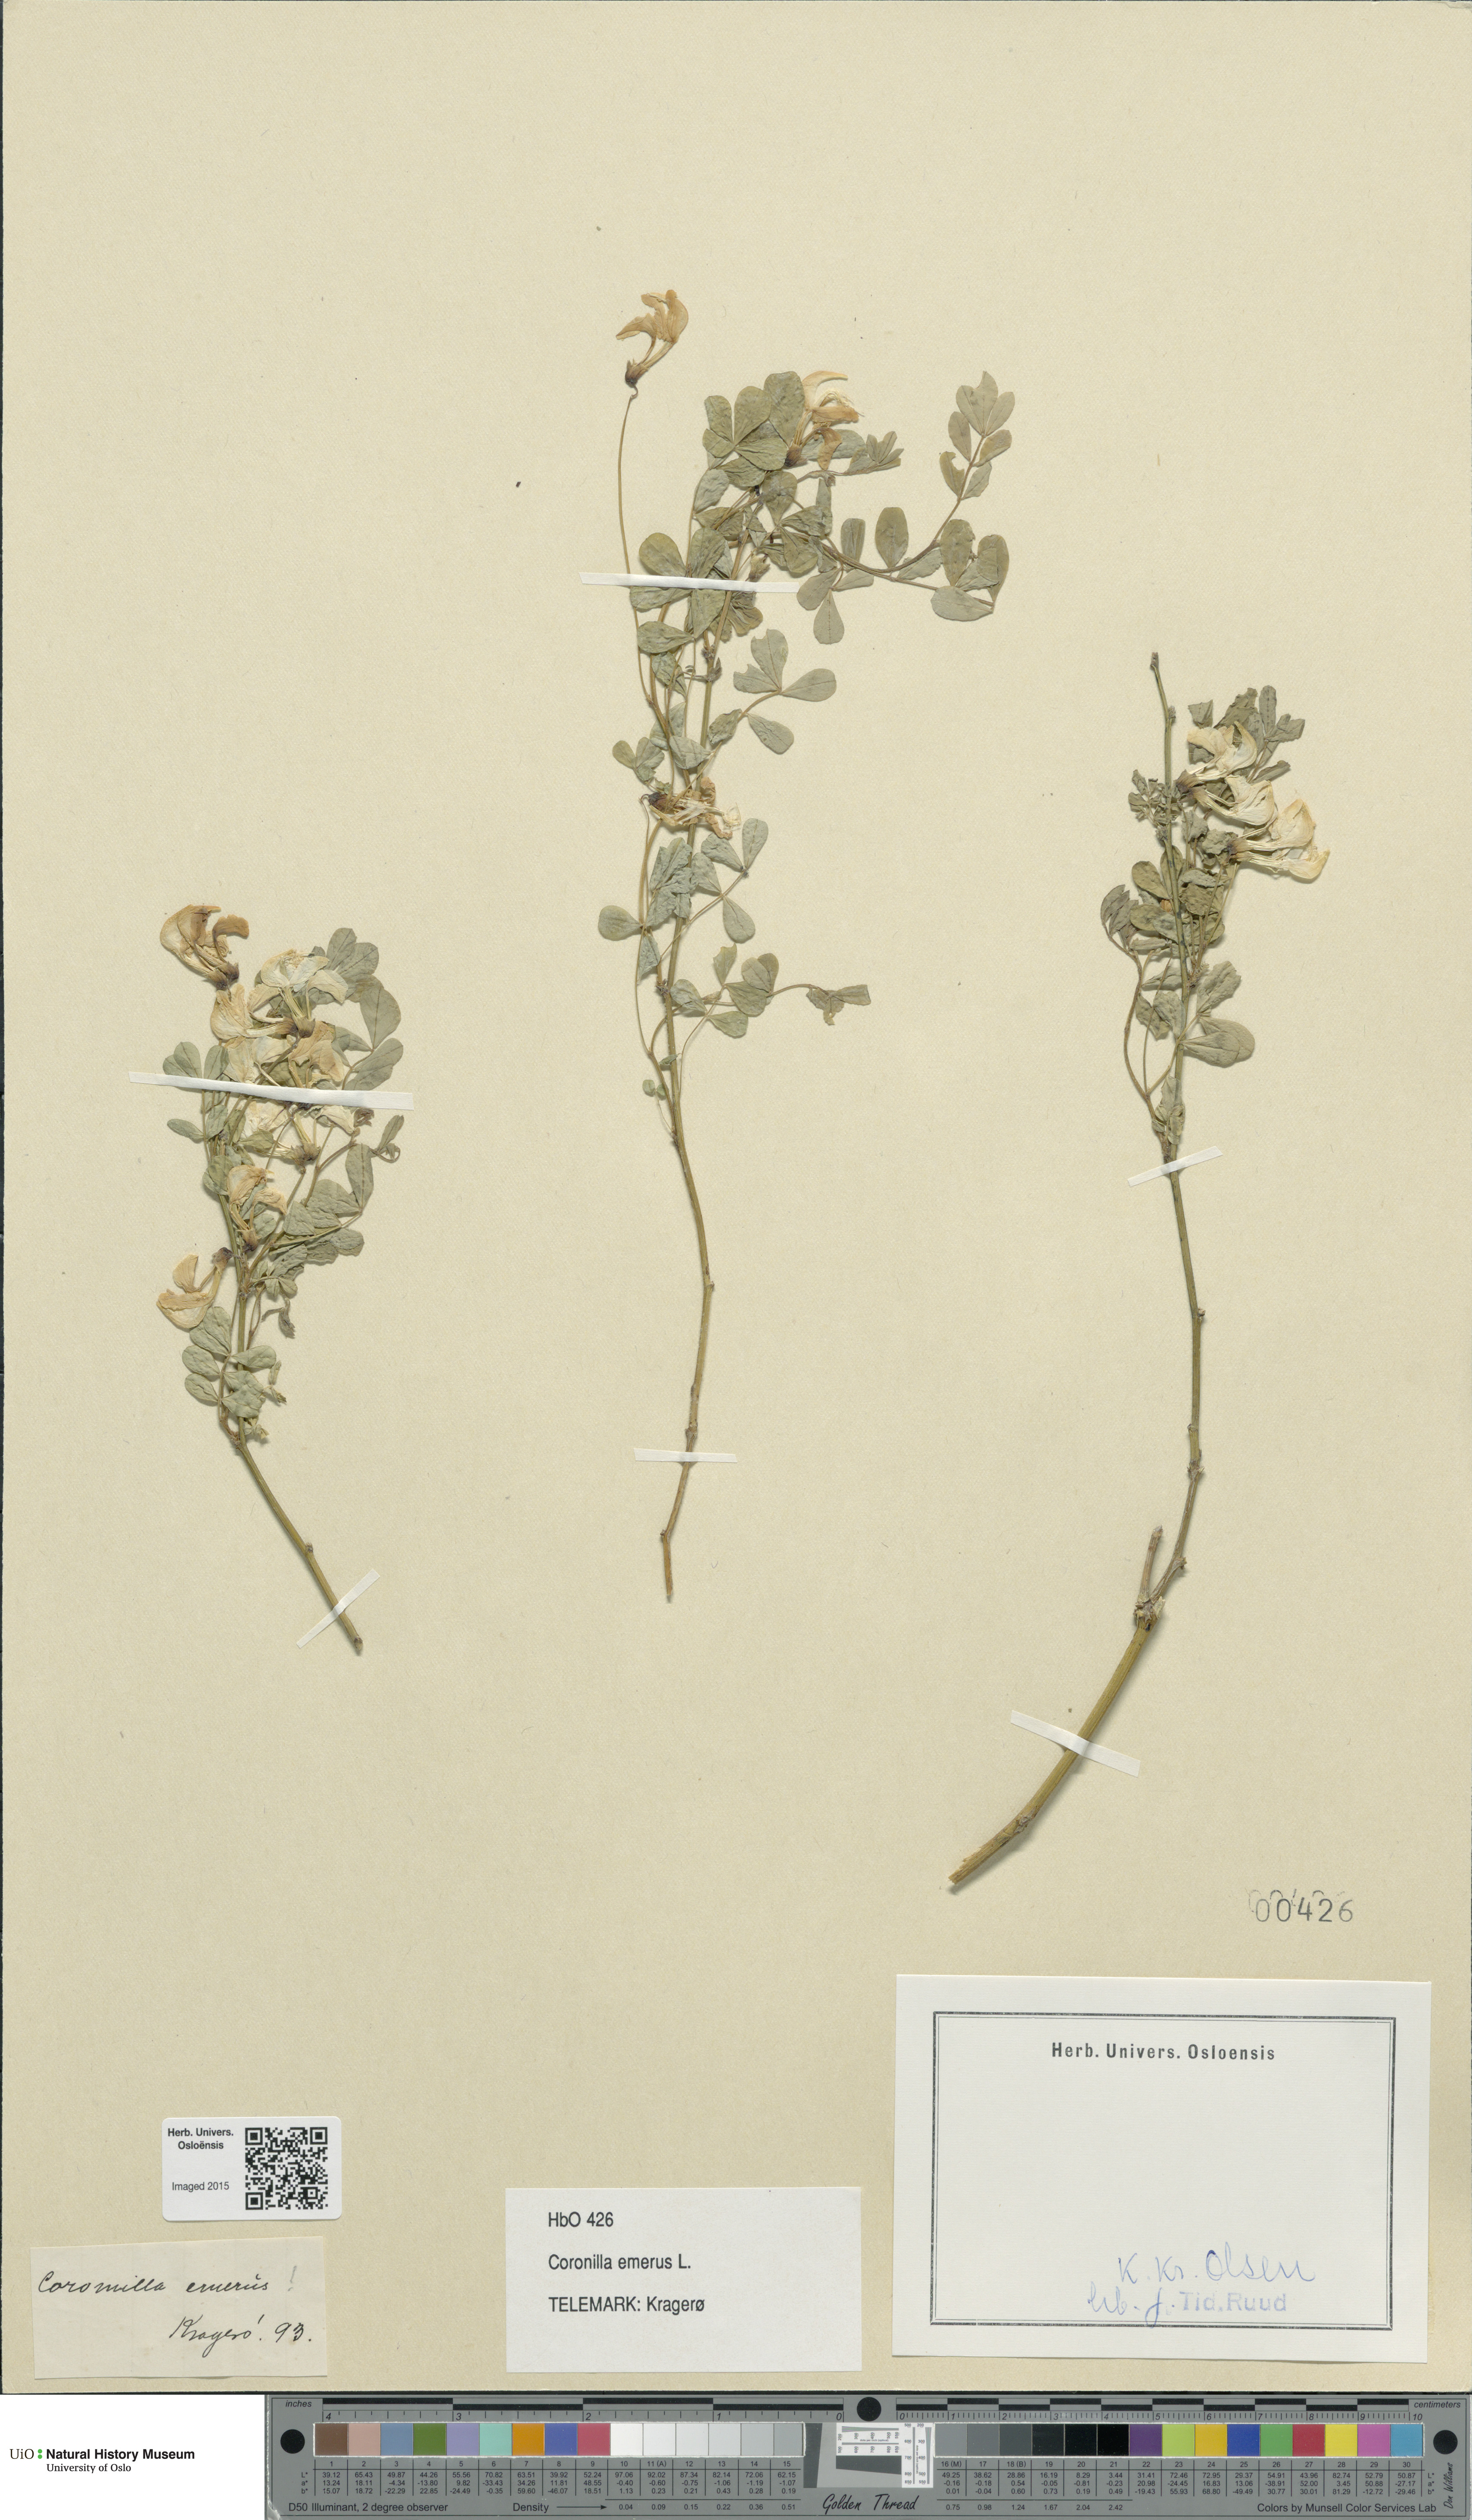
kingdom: Plantae
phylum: Tracheophyta
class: Magnoliopsida
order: Fabales
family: Fabaceae
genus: Hippocrepis
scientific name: Hippocrepis emerus
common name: Scorpion senna
